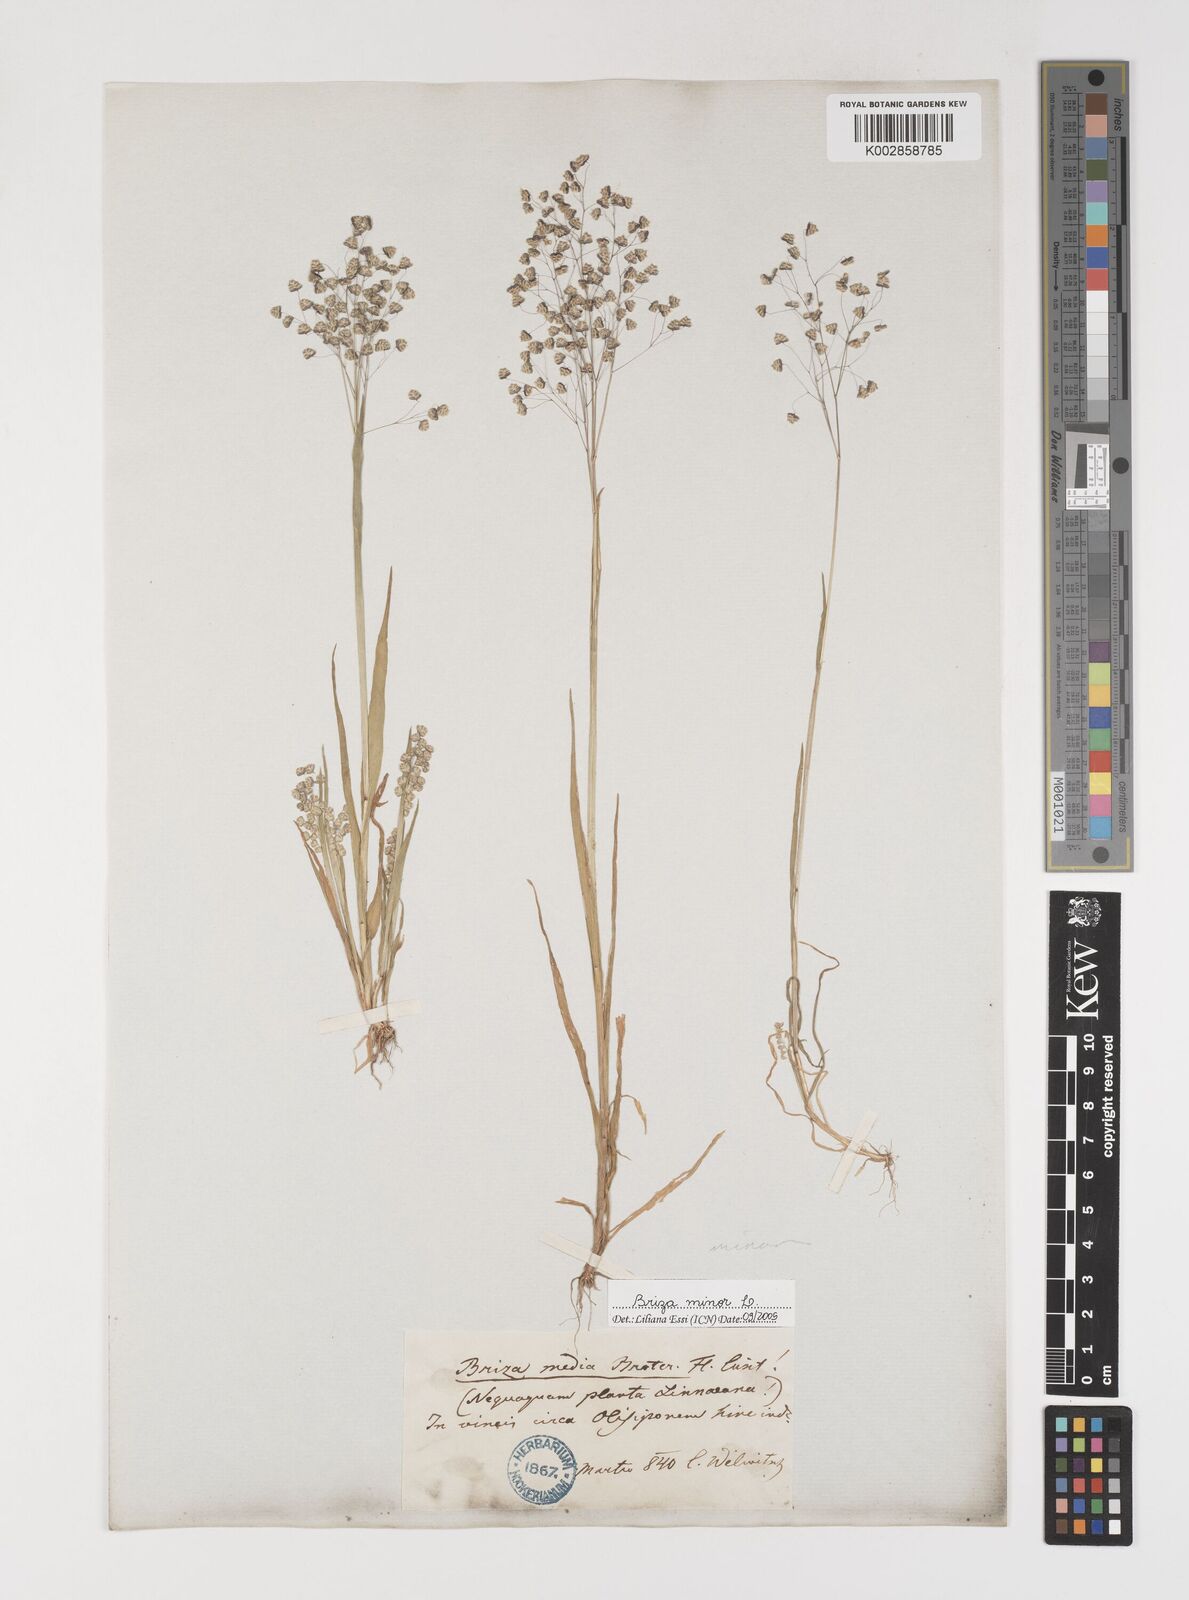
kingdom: Plantae
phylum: Tracheophyta
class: Liliopsida
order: Poales
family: Poaceae
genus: Briza
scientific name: Briza minor
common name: Lesser quaking-grass
